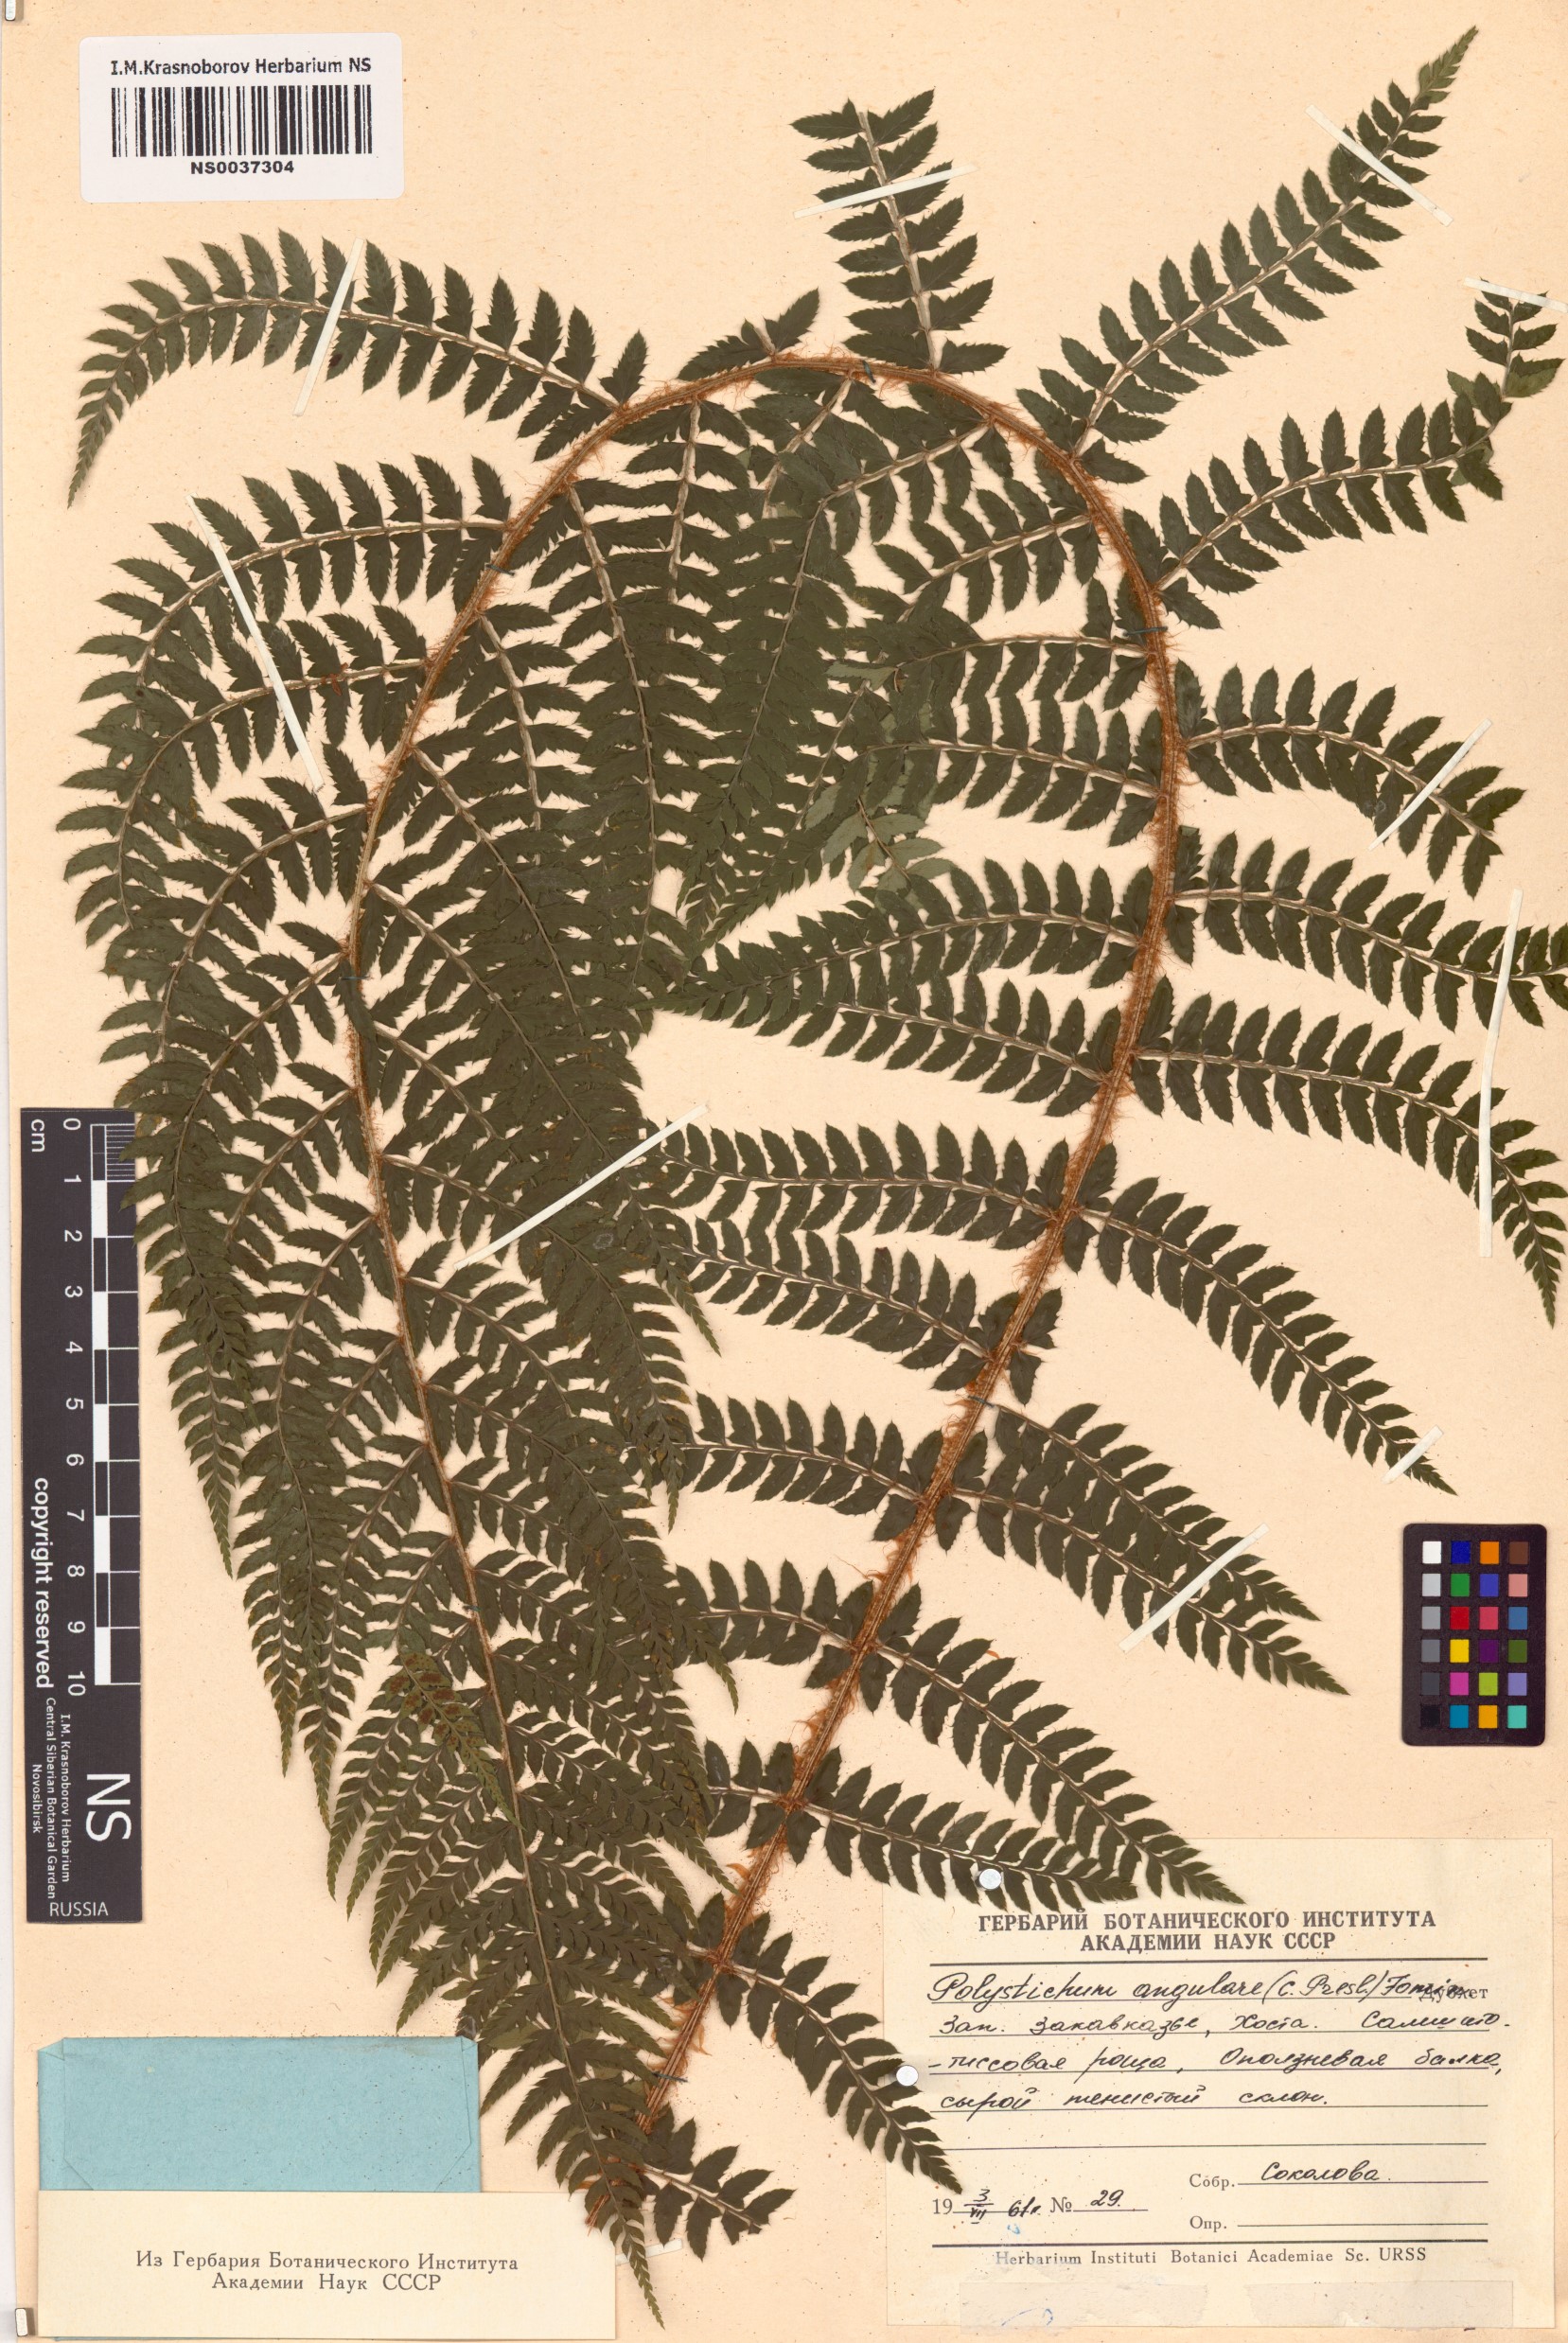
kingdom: Plantae
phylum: Tracheophyta
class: Polypodiopsida
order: Polypodiales
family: Dryopteridaceae
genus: Polystichum
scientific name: Polystichum setiferum
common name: Soft shield-fern
